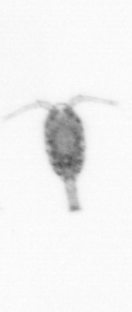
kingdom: Animalia
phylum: Arthropoda
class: Copepoda
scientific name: Copepoda
